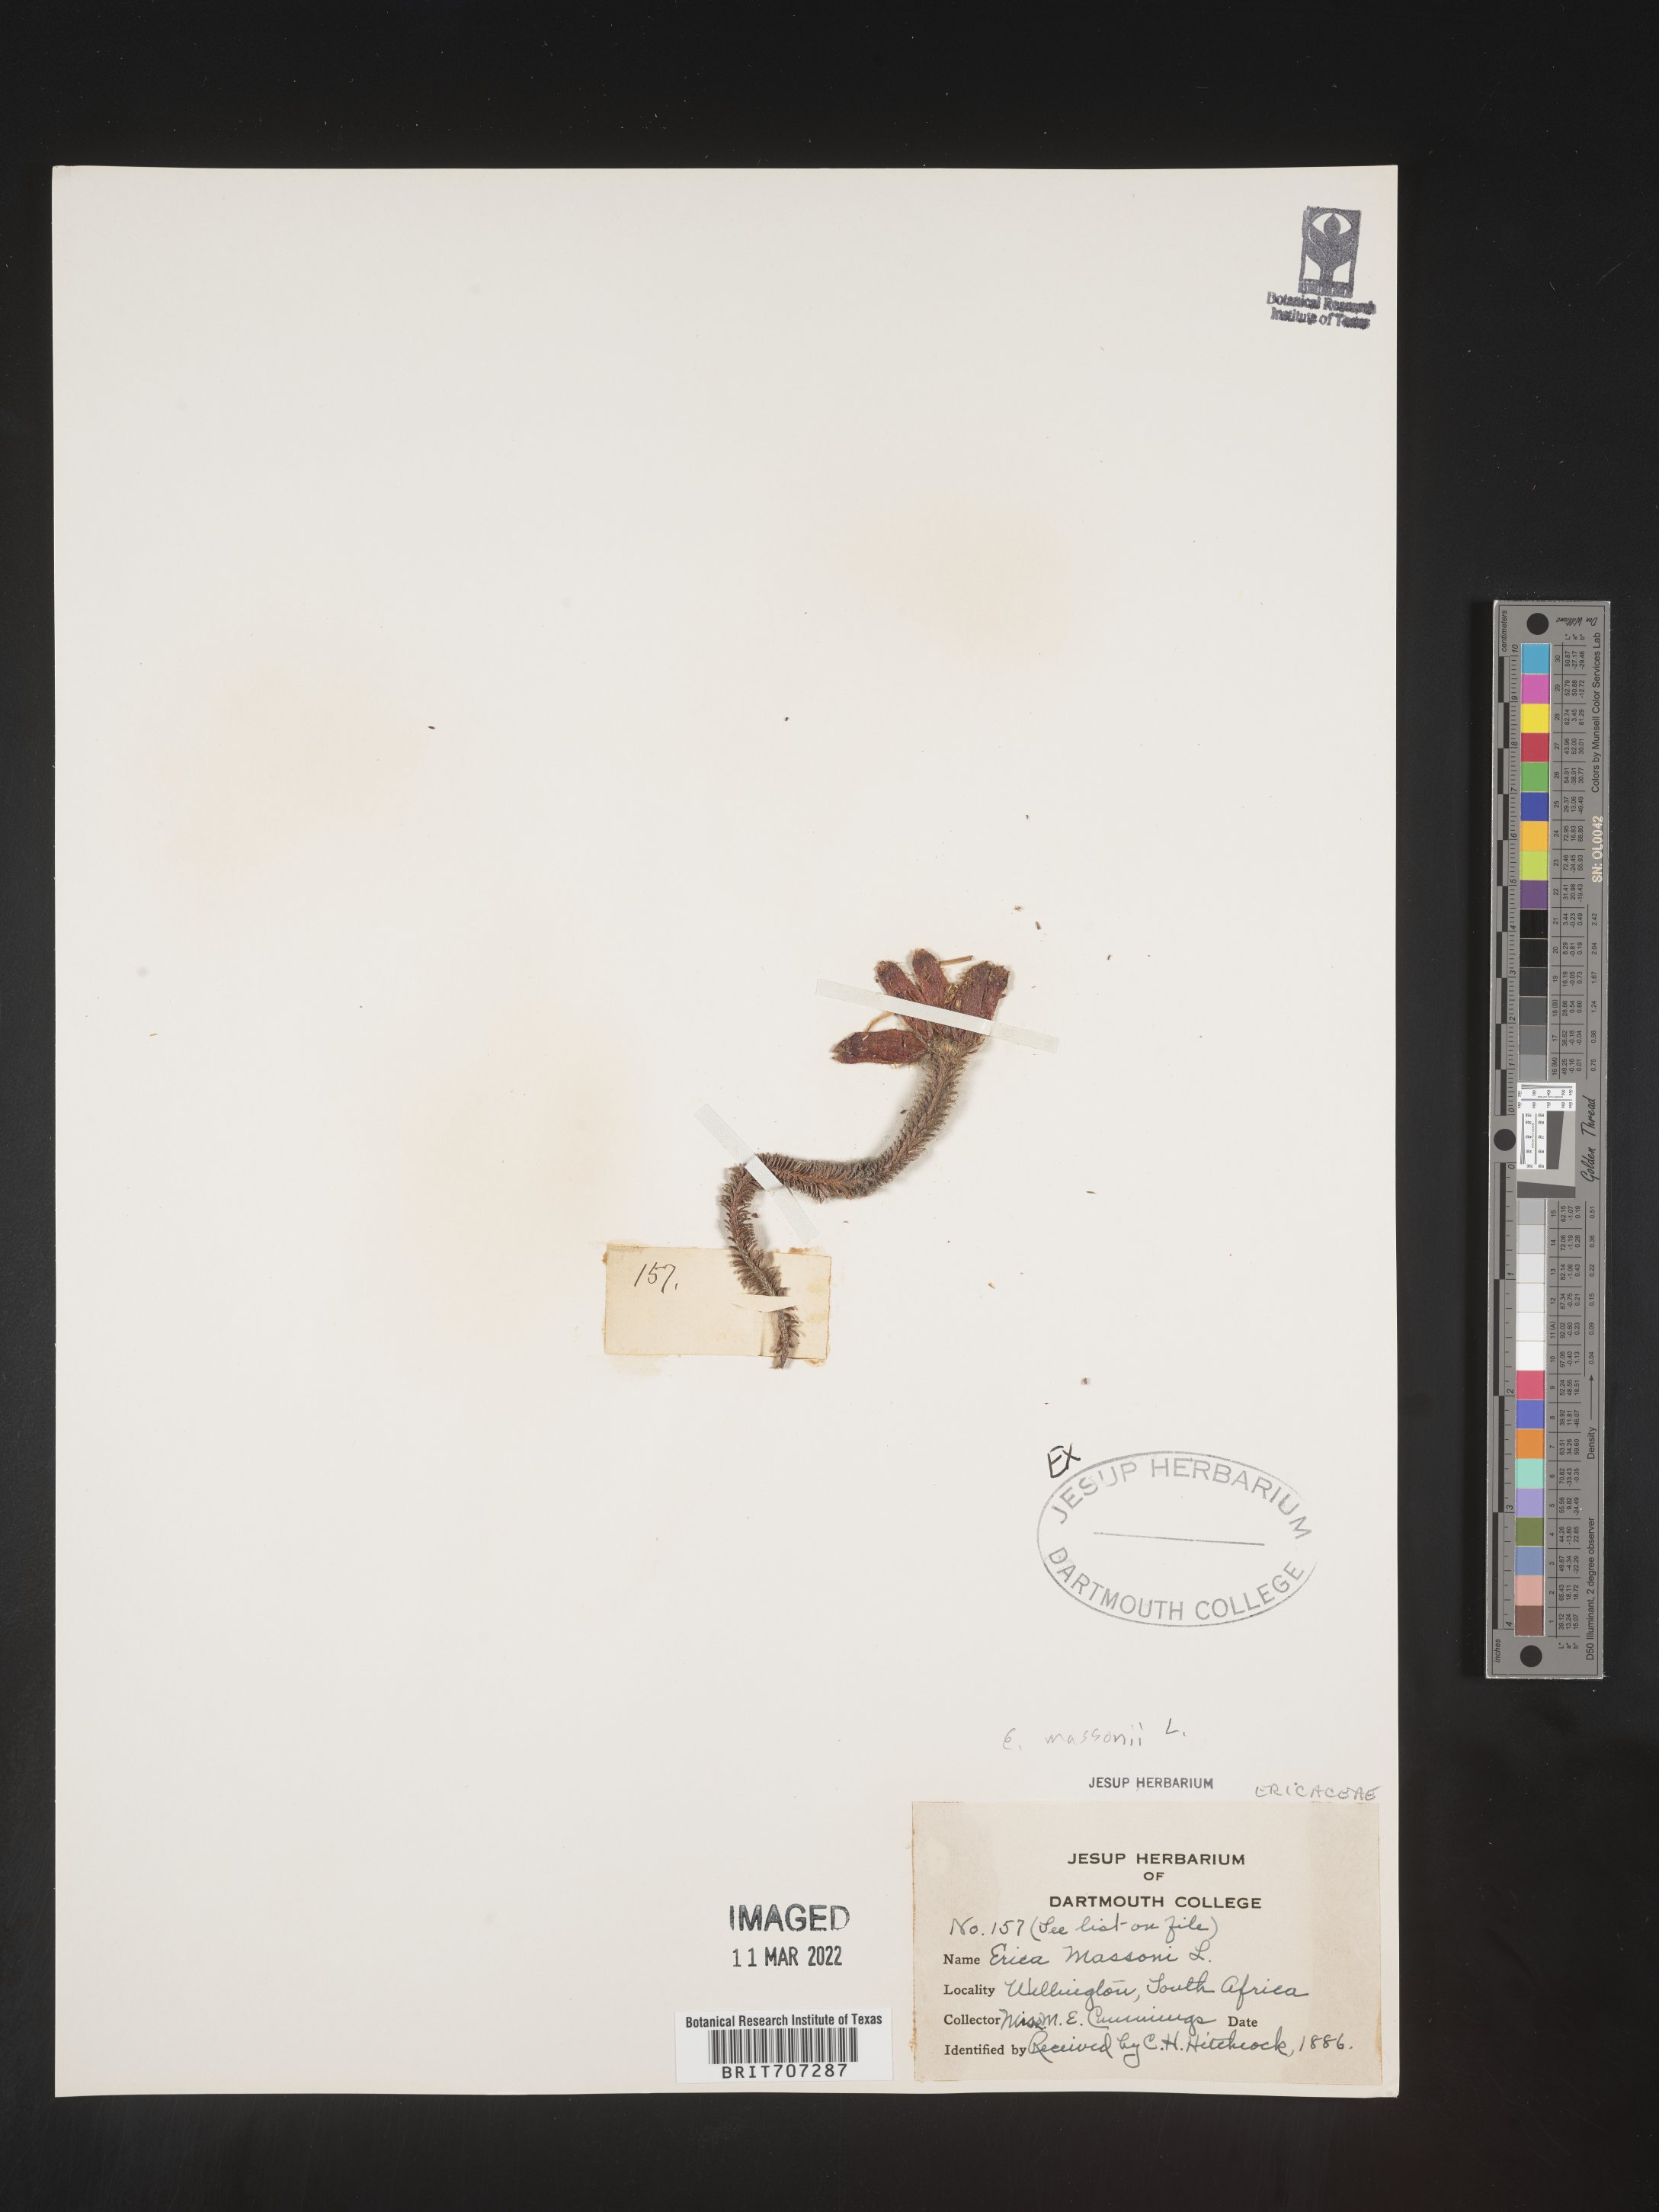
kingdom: Plantae
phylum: Tracheophyta
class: Magnoliopsida
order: Ericales
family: Ericaceae
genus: Erica
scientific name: Erica
